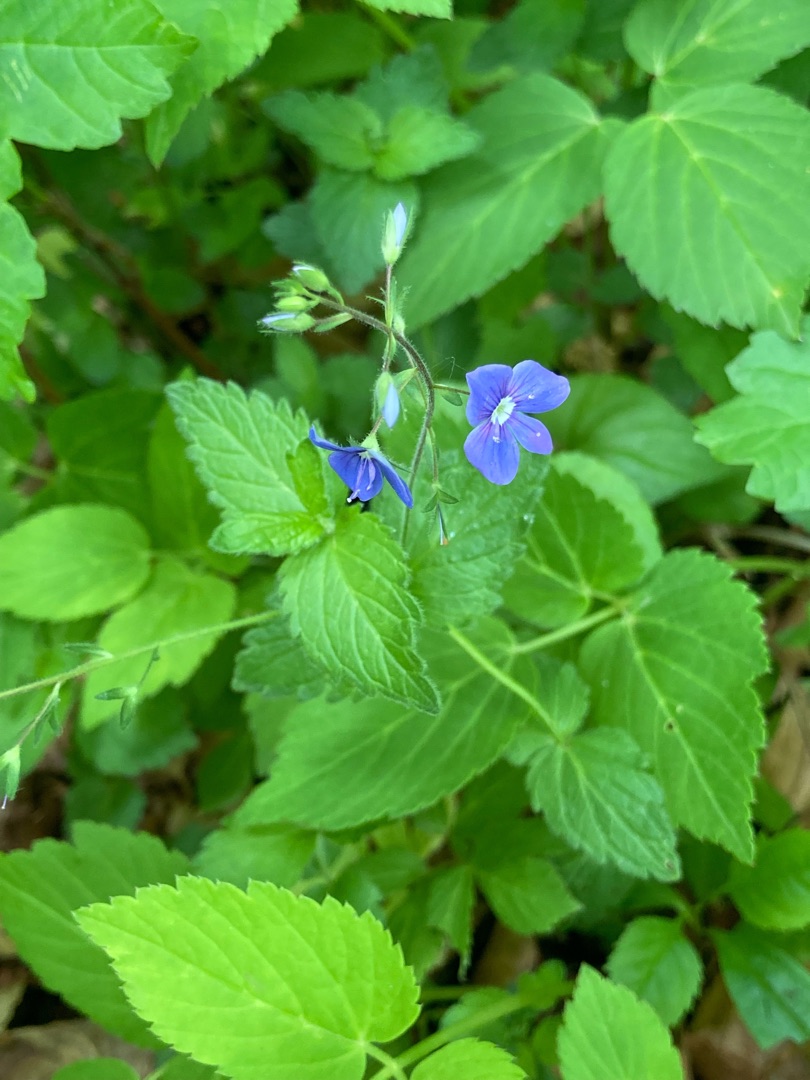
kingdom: Plantae
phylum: Tracheophyta
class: Magnoliopsida
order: Lamiales
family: Plantaginaceae
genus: Veronica
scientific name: Veronica chamaedrys
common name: Tveskægget ærenpris
